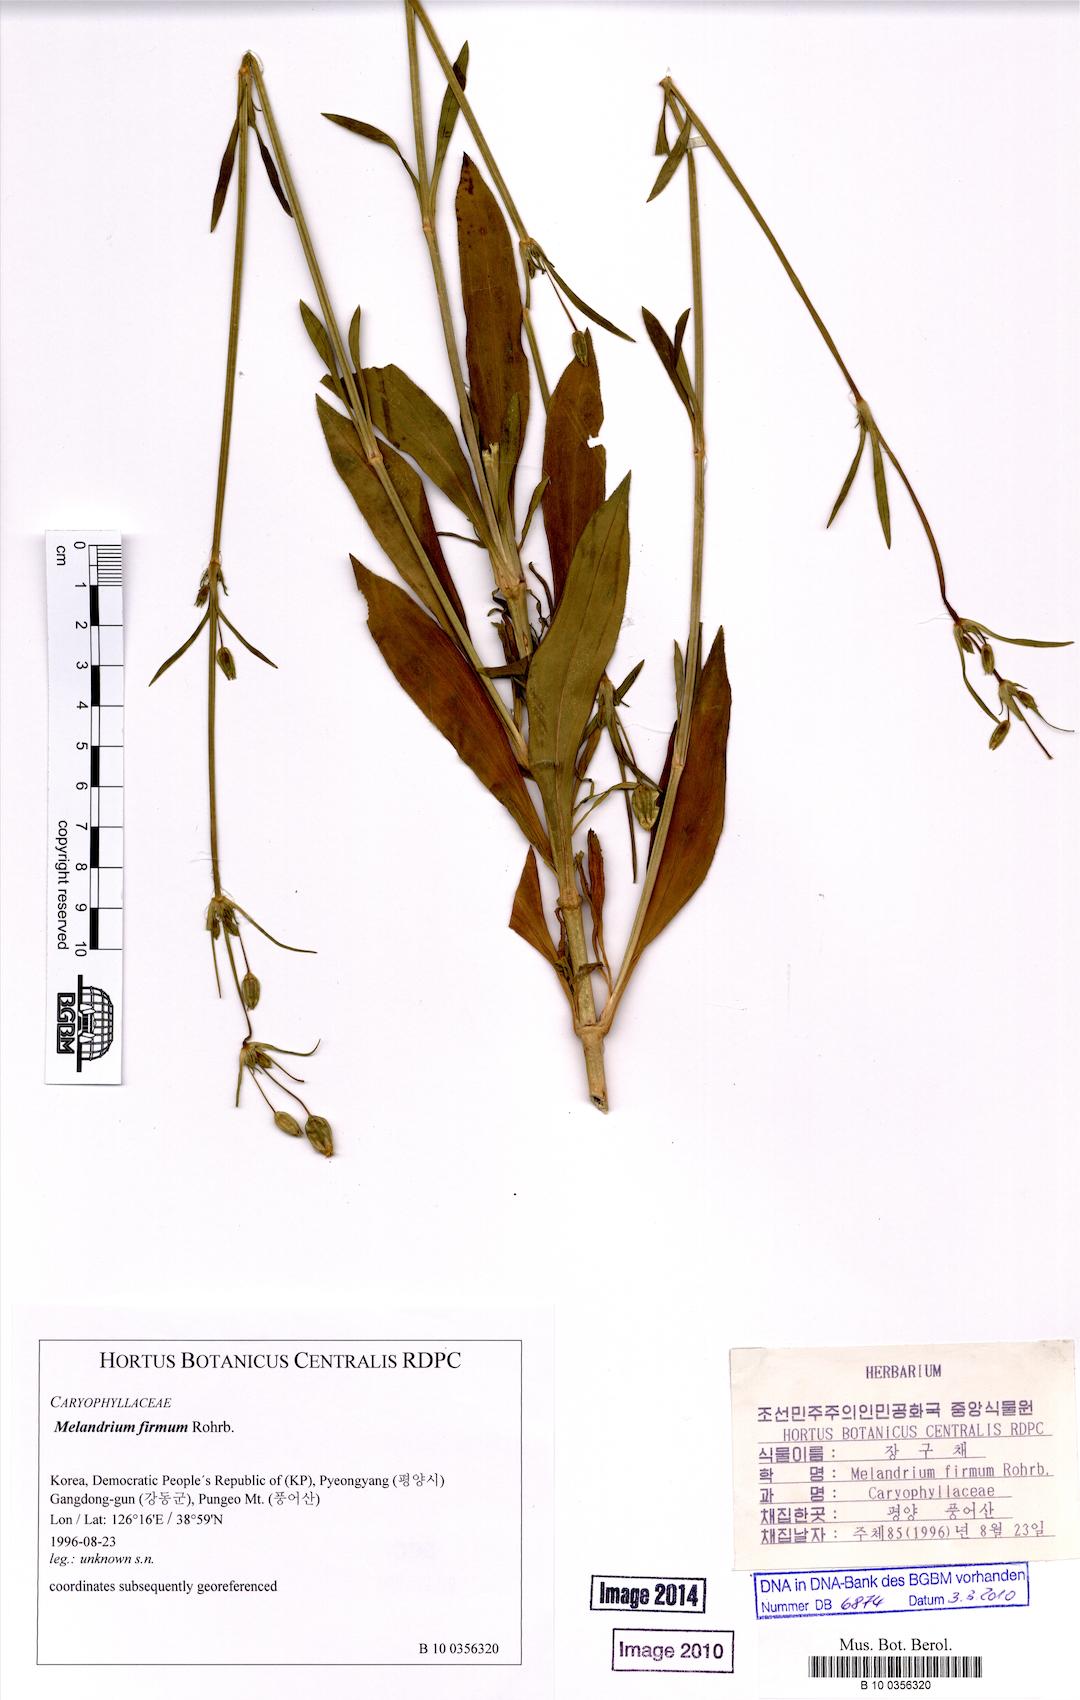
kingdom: Plantae
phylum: Tracheophyta
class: Magnoliopsida
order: Caryophyllales
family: Caryophyllaceae
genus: Silene
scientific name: Silene firma
